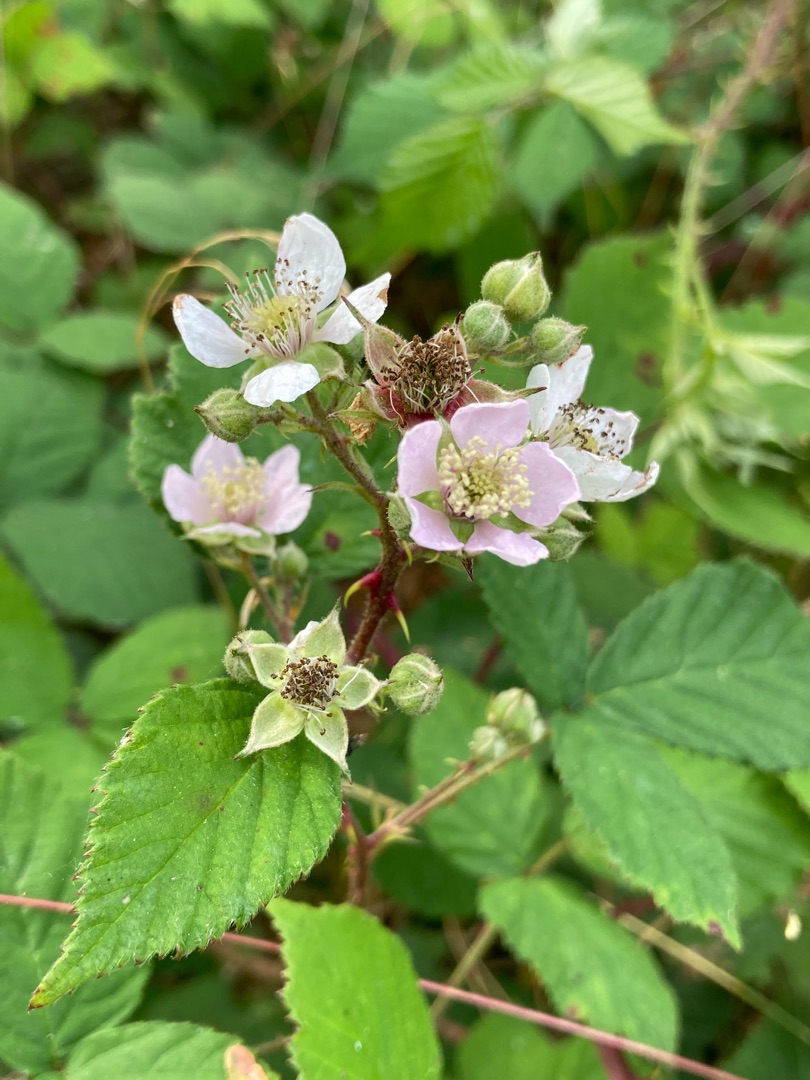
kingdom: Plantae
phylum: Tracheophyta
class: Magnoliopsida
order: Rosales
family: Rosaceae
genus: Rubus
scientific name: Rubus infestus
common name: Klotornet brombær
